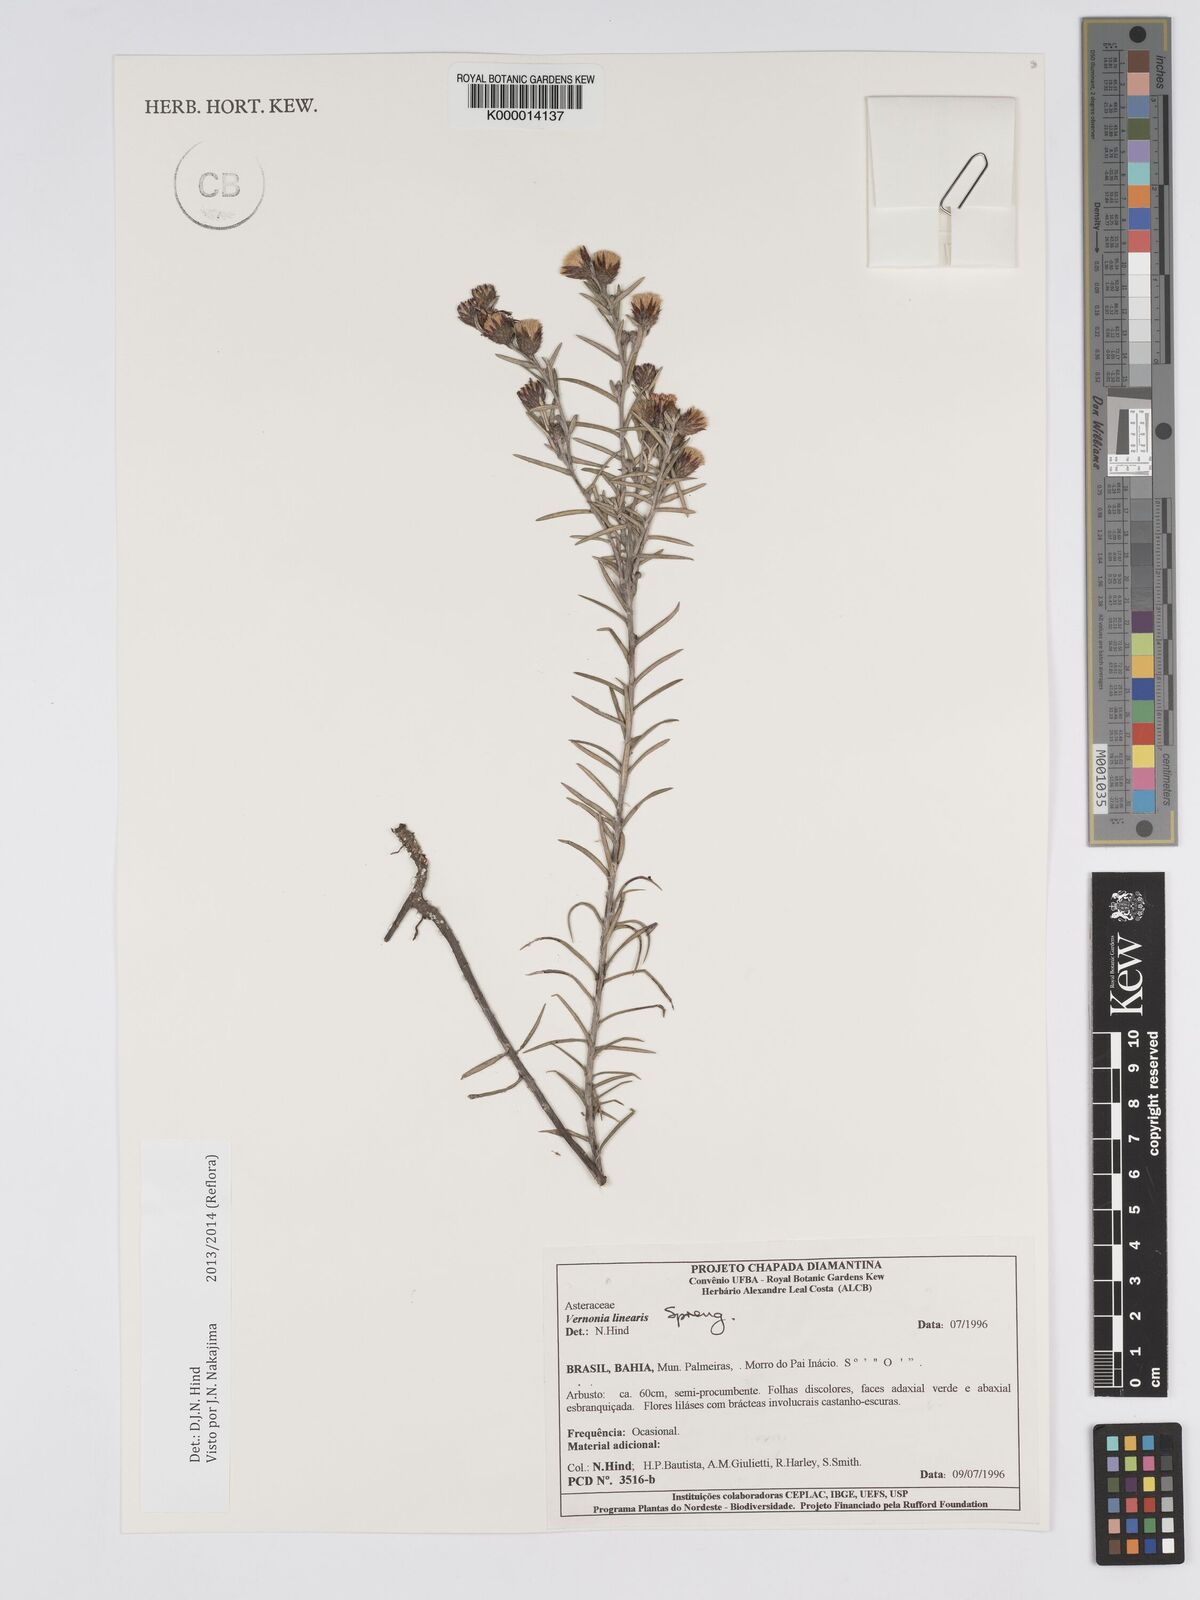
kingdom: Plantae
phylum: Tracheophyta
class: Magnoliopsida
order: Asterales
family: Asteraceae
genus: Lessingianthus
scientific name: Lessingianthus linearis
